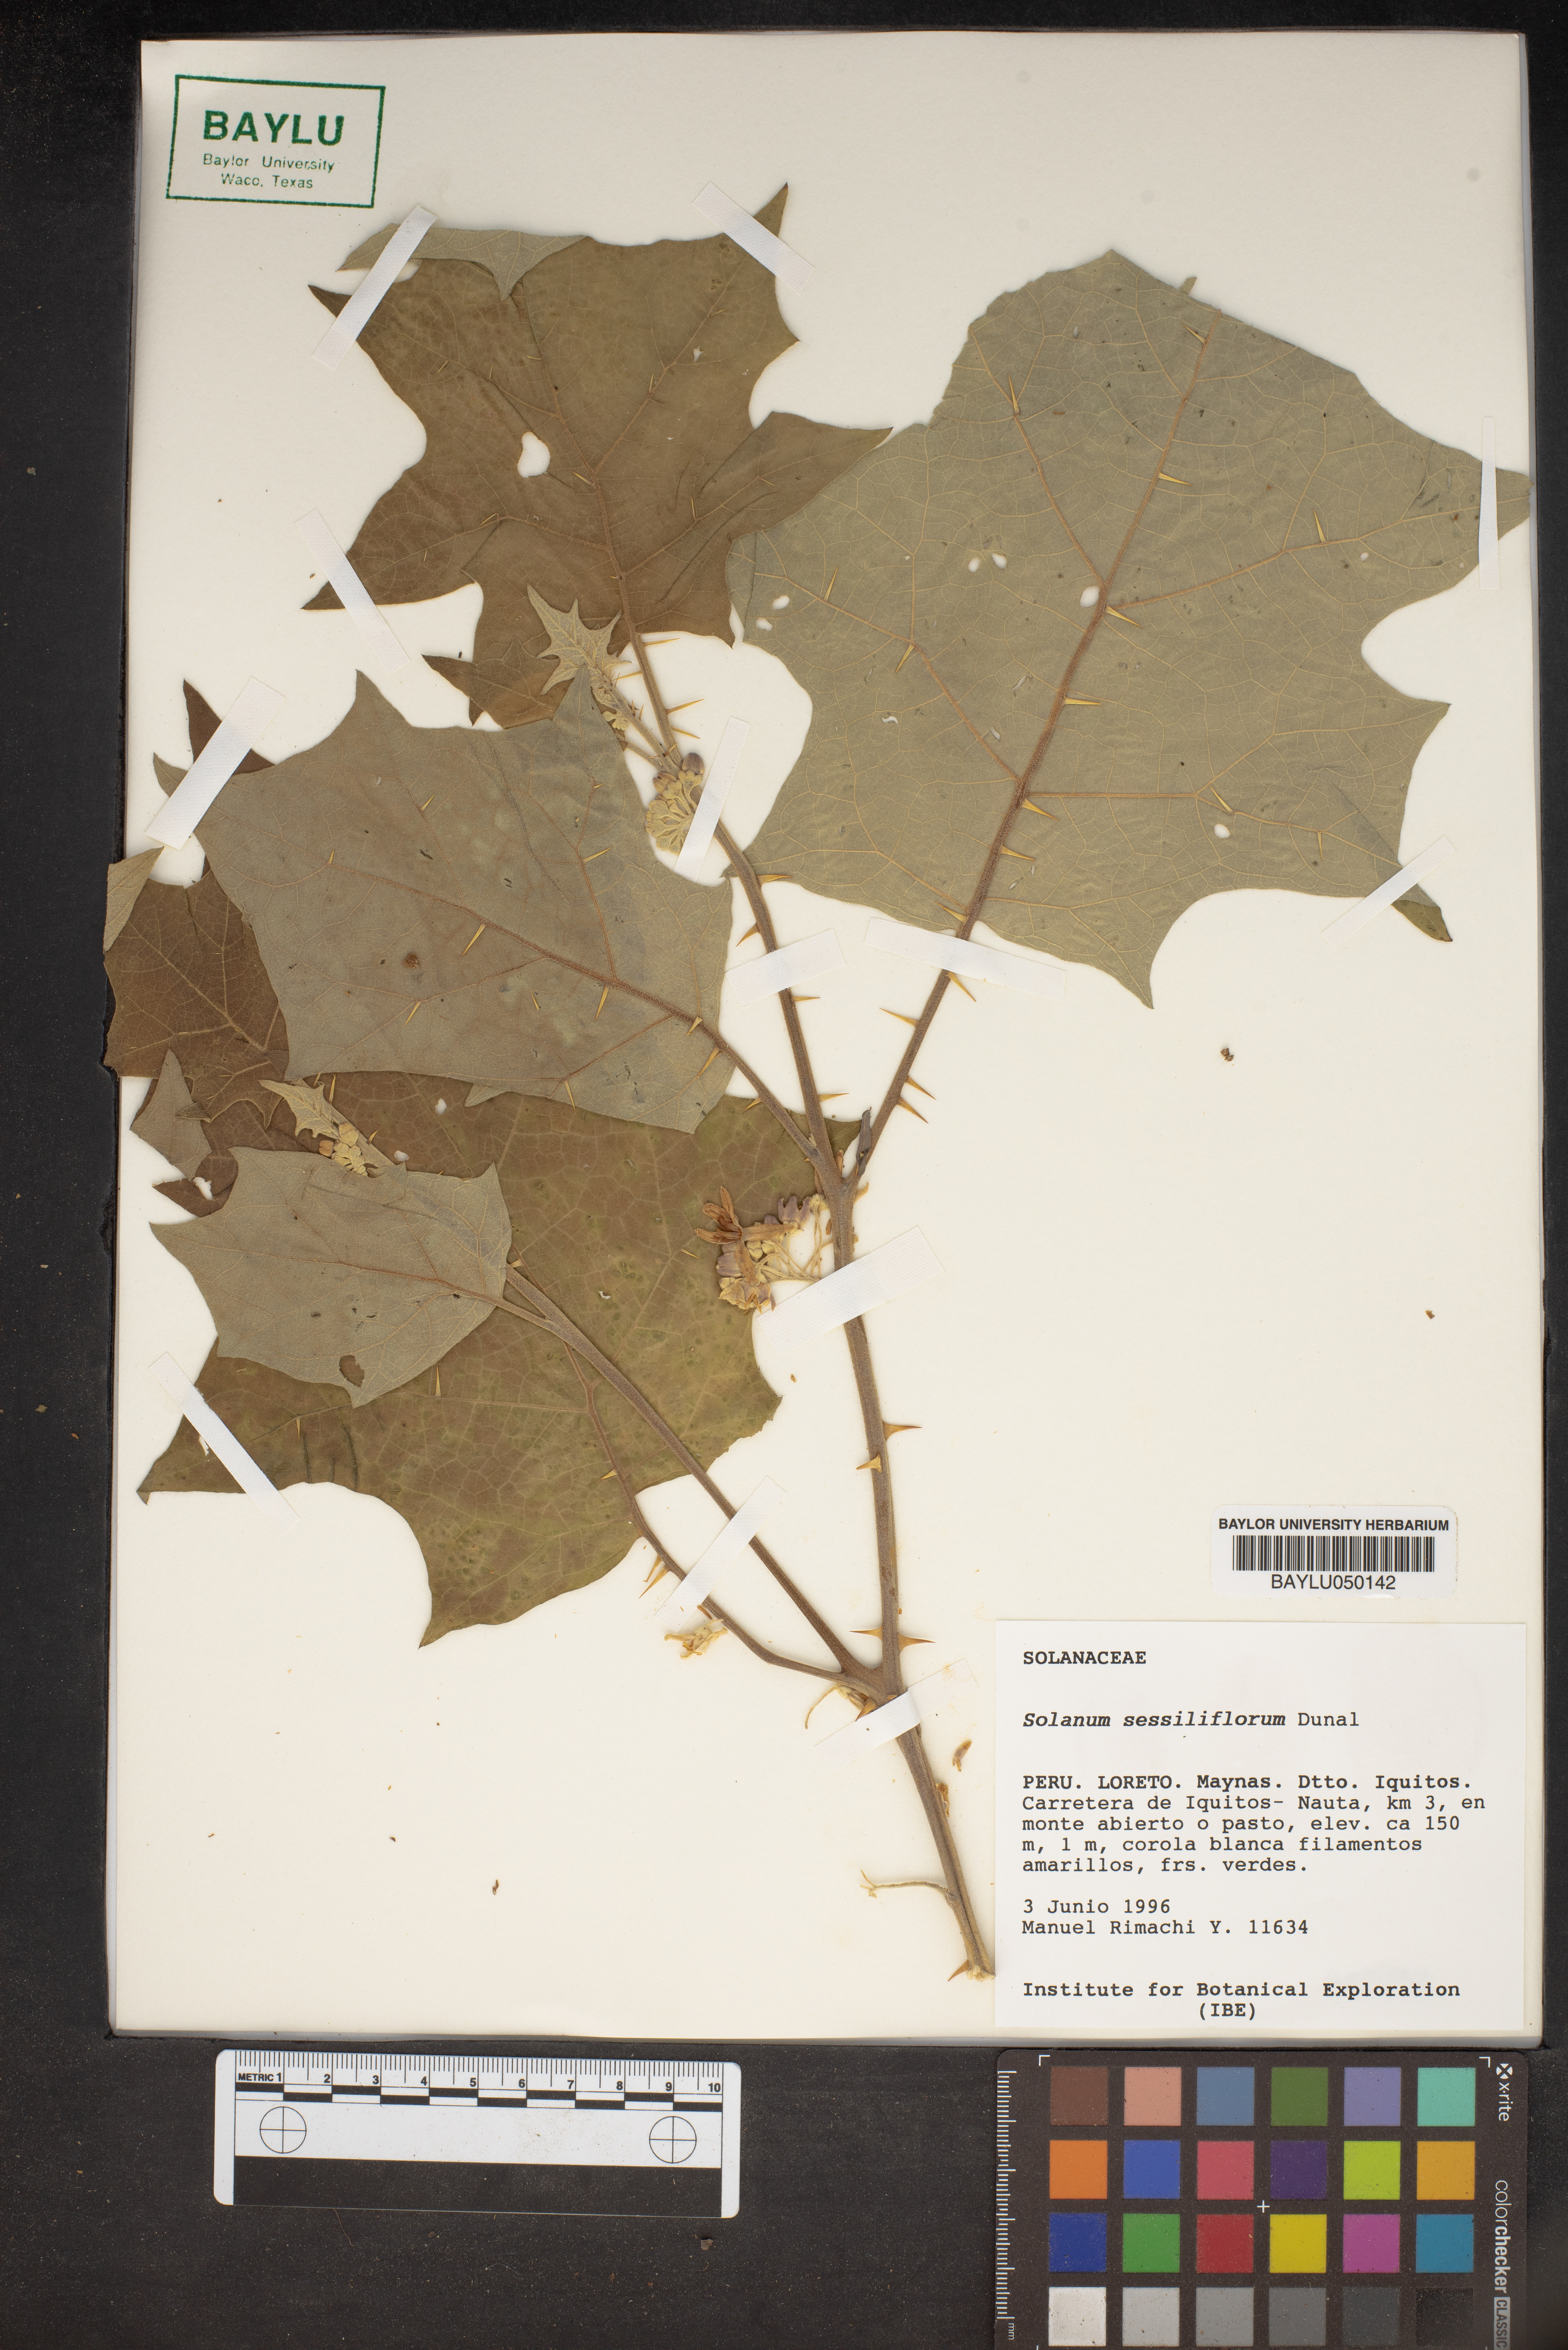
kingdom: Plantae
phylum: Tracheophyta
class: Magnoliopsida
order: Solanales
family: Solanaceae
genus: Solanum
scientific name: Solanum sessiliflorum
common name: Orinoco-apple
